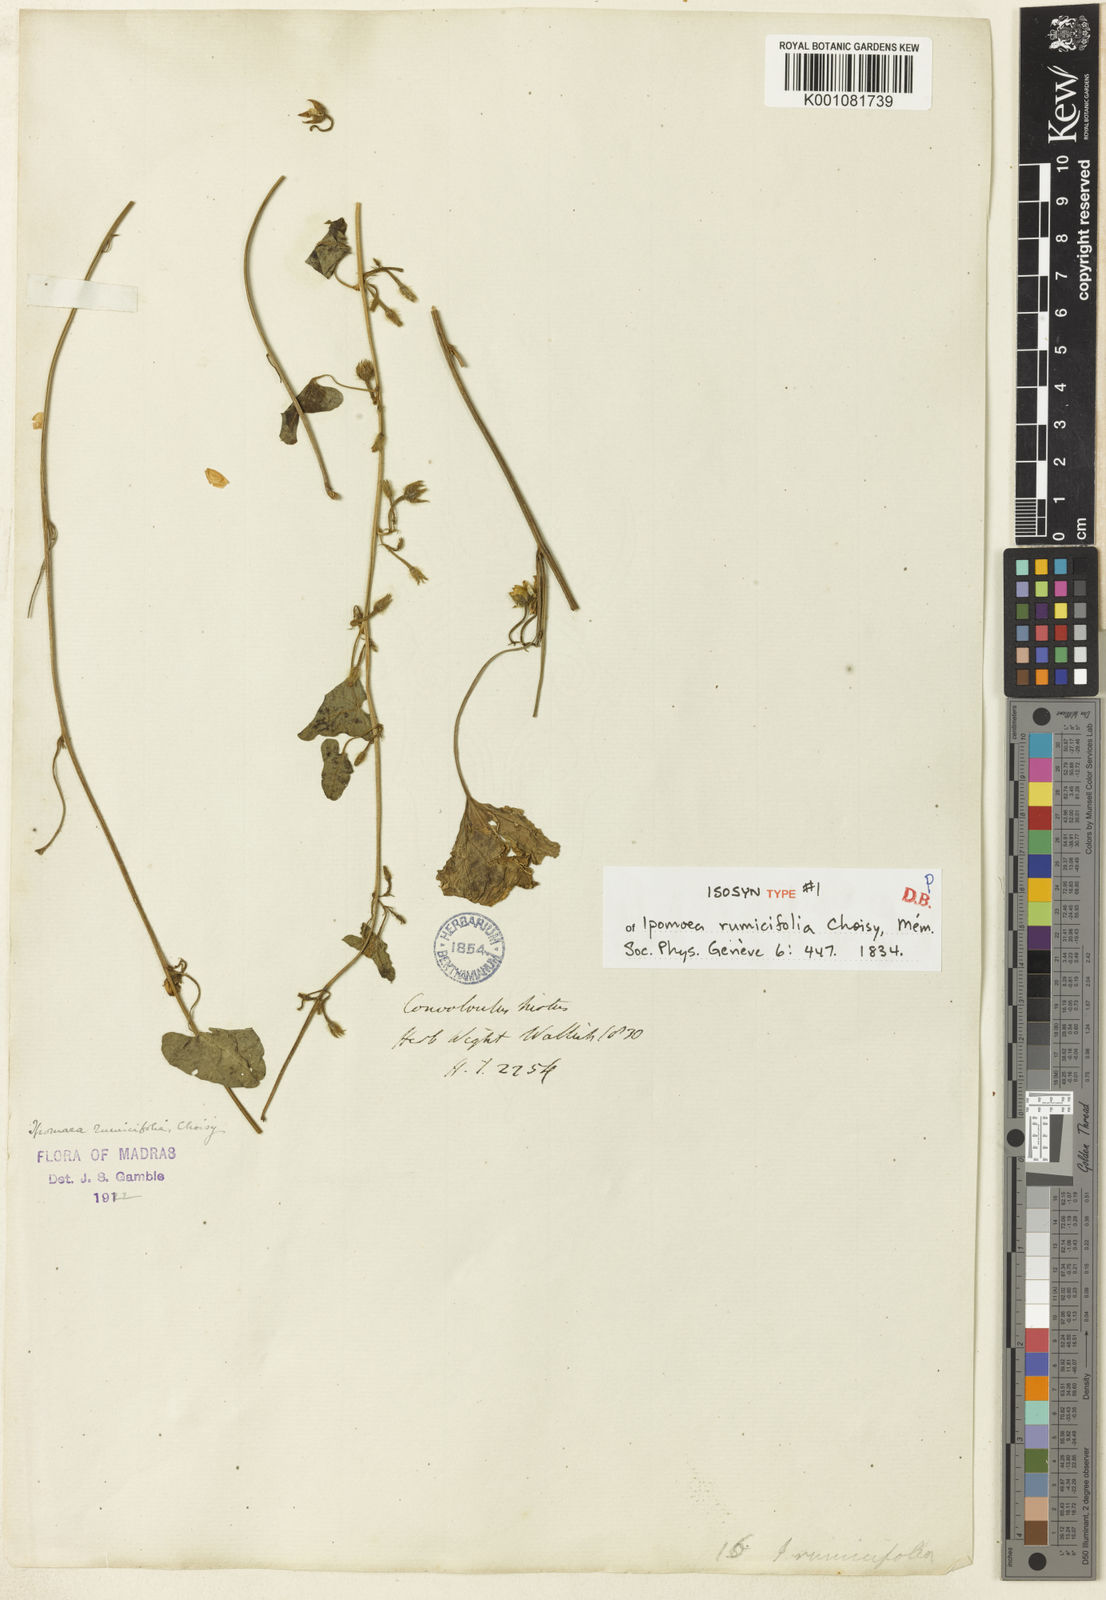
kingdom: Plantae
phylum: Tracheophyta
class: Magnoliopsida
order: Solanales
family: Convolvulaceae
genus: Ipomoea
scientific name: Ipomoea verticillata
